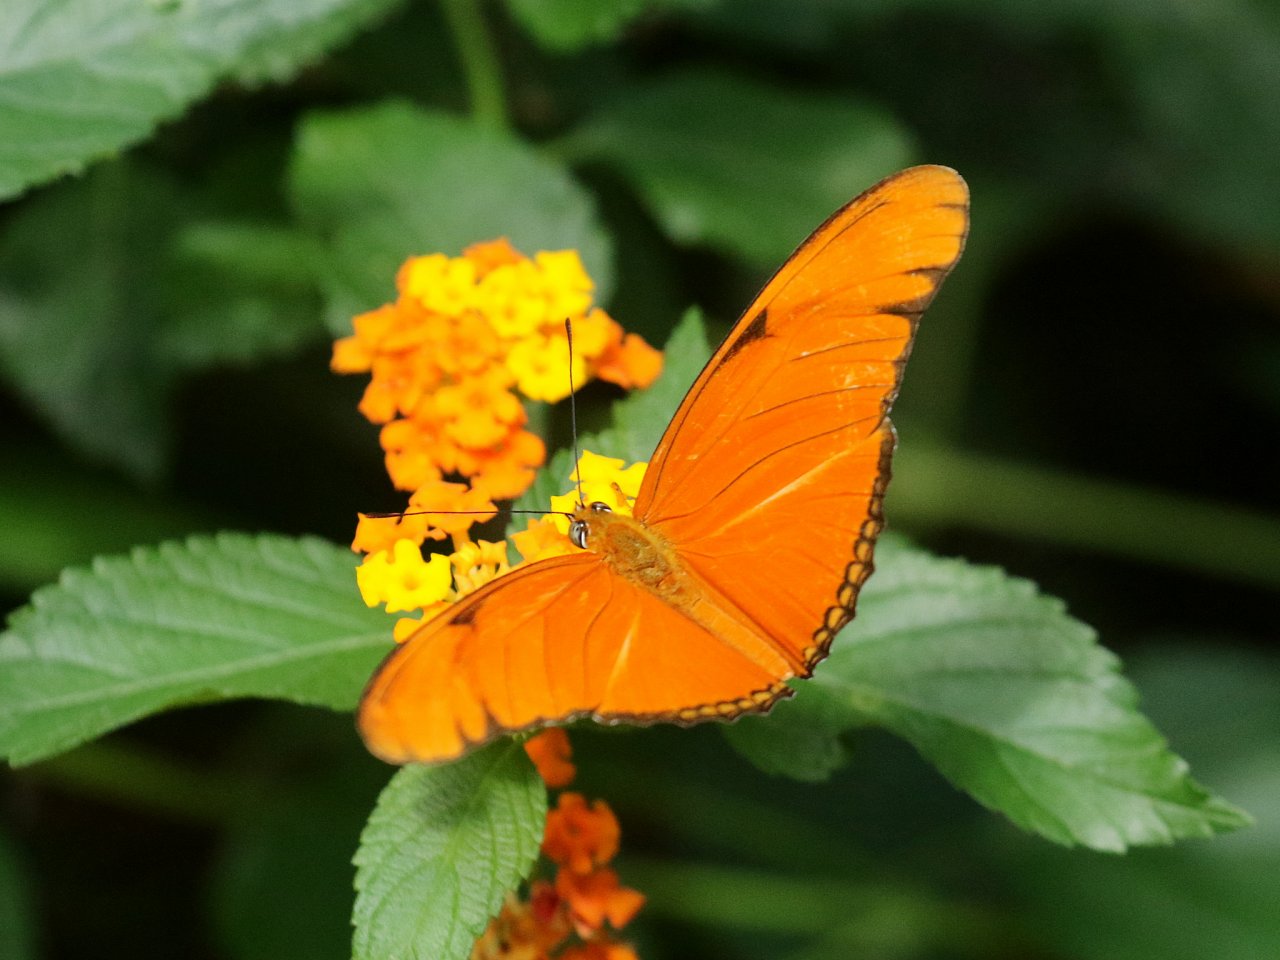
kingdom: Animalia
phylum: Arthropoda
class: Insecta
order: Lepidoptera
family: Nymphalidae
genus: Dryas
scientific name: Dryas iulia
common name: Julia
